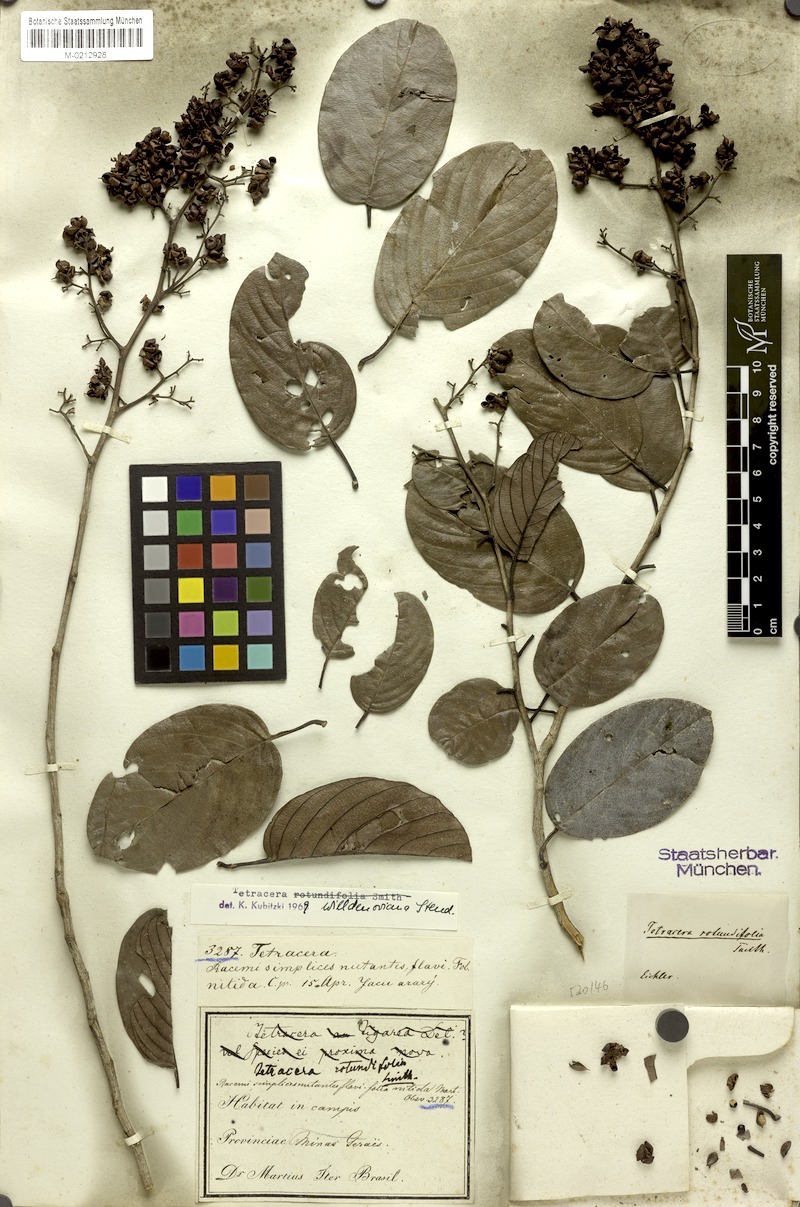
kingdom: Plantae
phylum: Tracheophyta
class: Magnoliopsida
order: Dilleniales
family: Dilleniaceae
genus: Tetracera
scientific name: Tetracera willdenowiana
